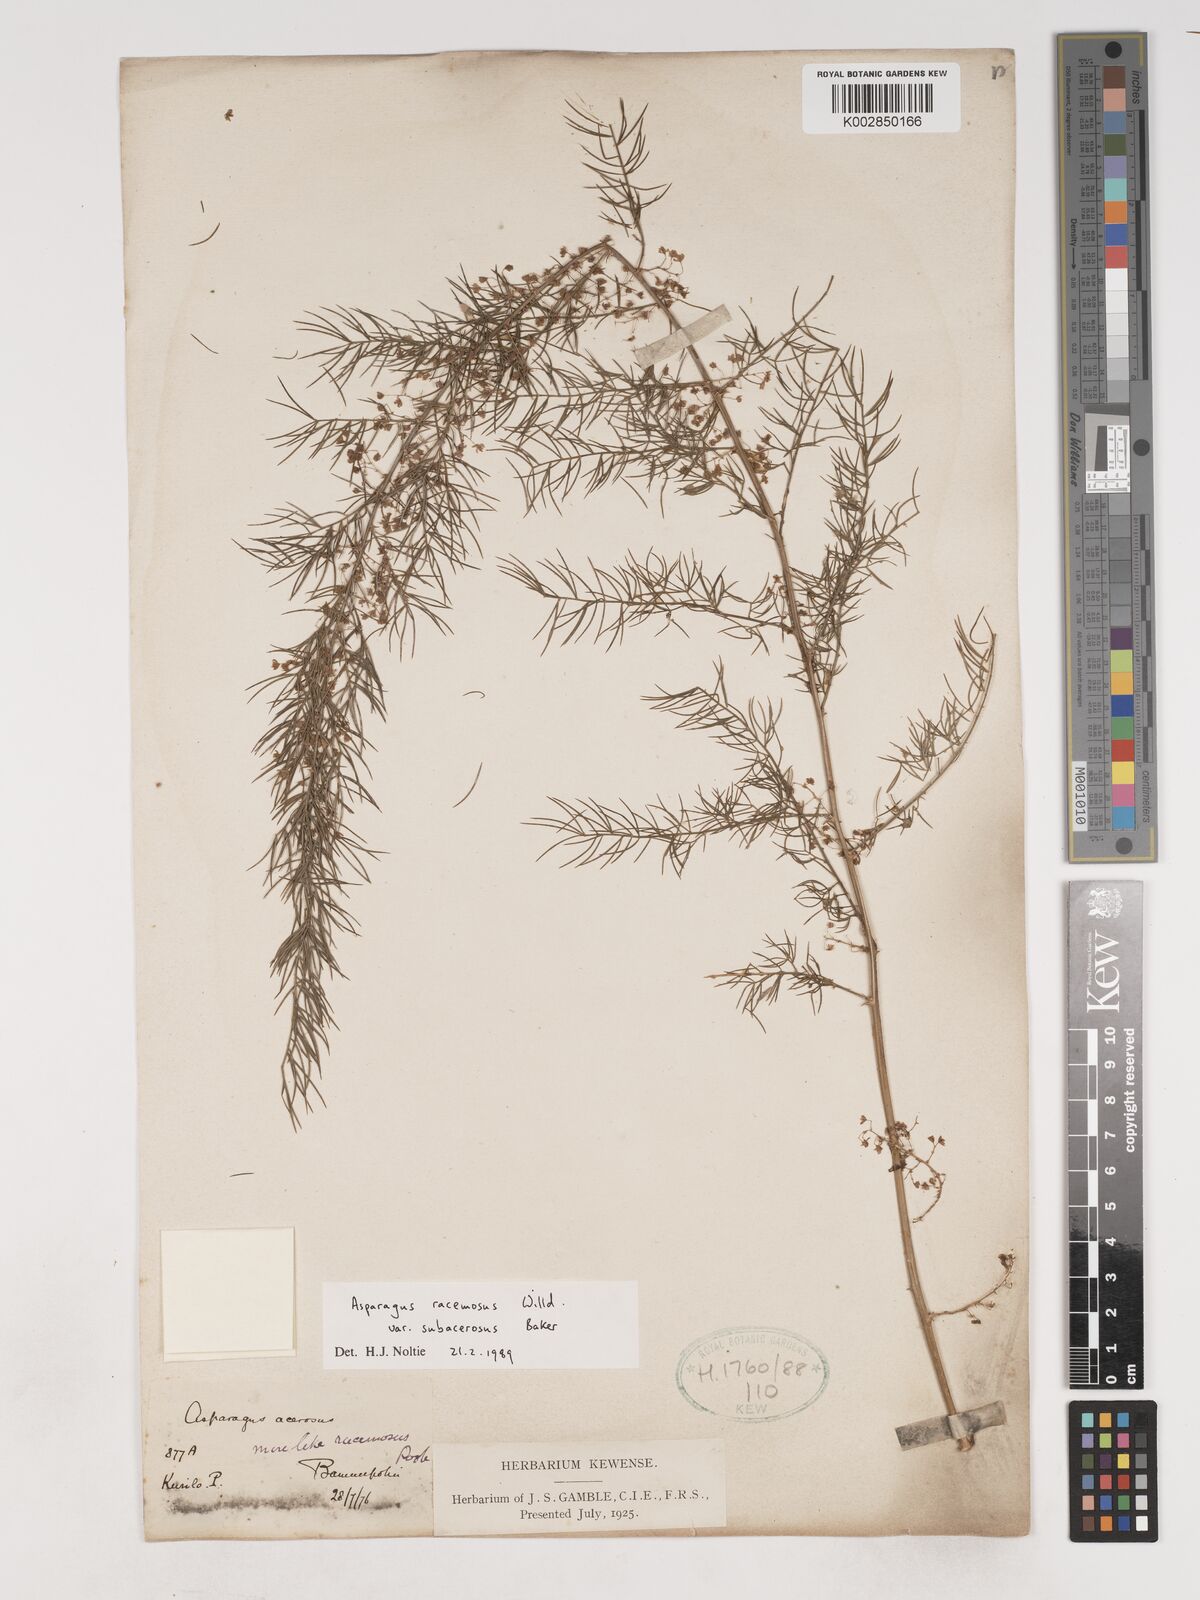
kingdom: Plantae
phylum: Tracheophyta
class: Liliopsida
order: Asparagales
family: Asparagaceae
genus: Asparagus
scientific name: Asparagus racemosus
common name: Asparagus-fern
